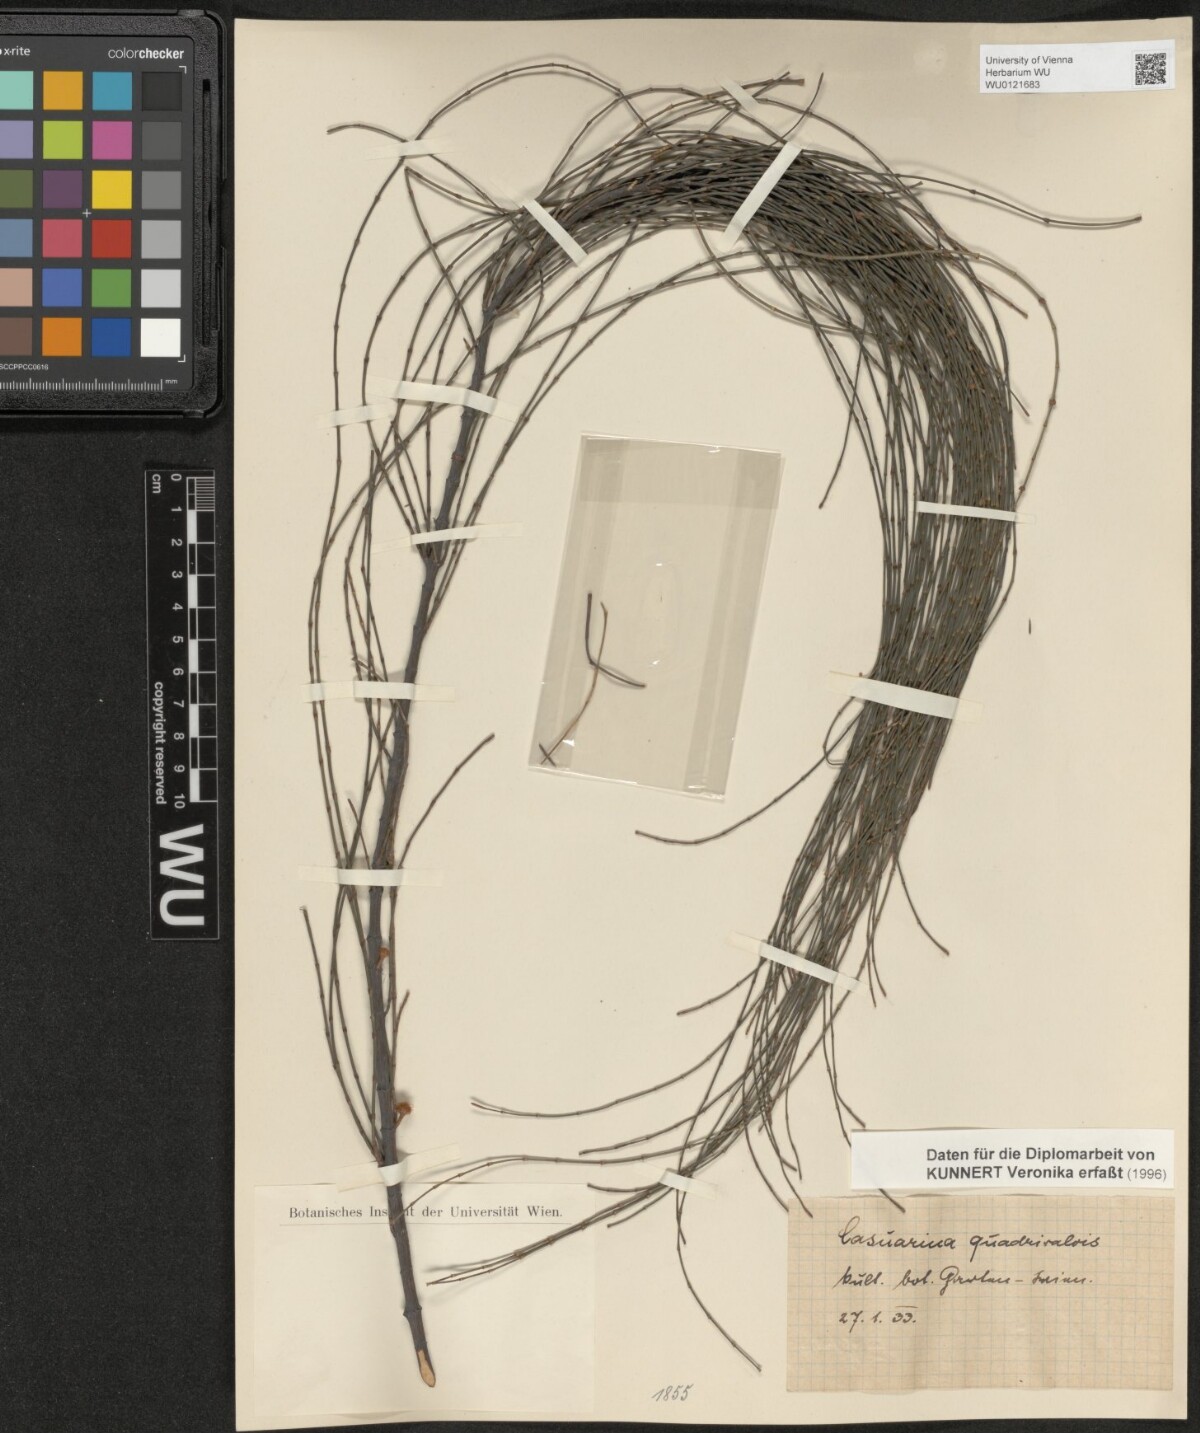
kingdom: Plantae
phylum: Tracheophyta
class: Magnoliopsida
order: Fagales
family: Casuarinaceae
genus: Allocasuarina
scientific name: Allocasuarina verticillata
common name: Drooping she-oak
